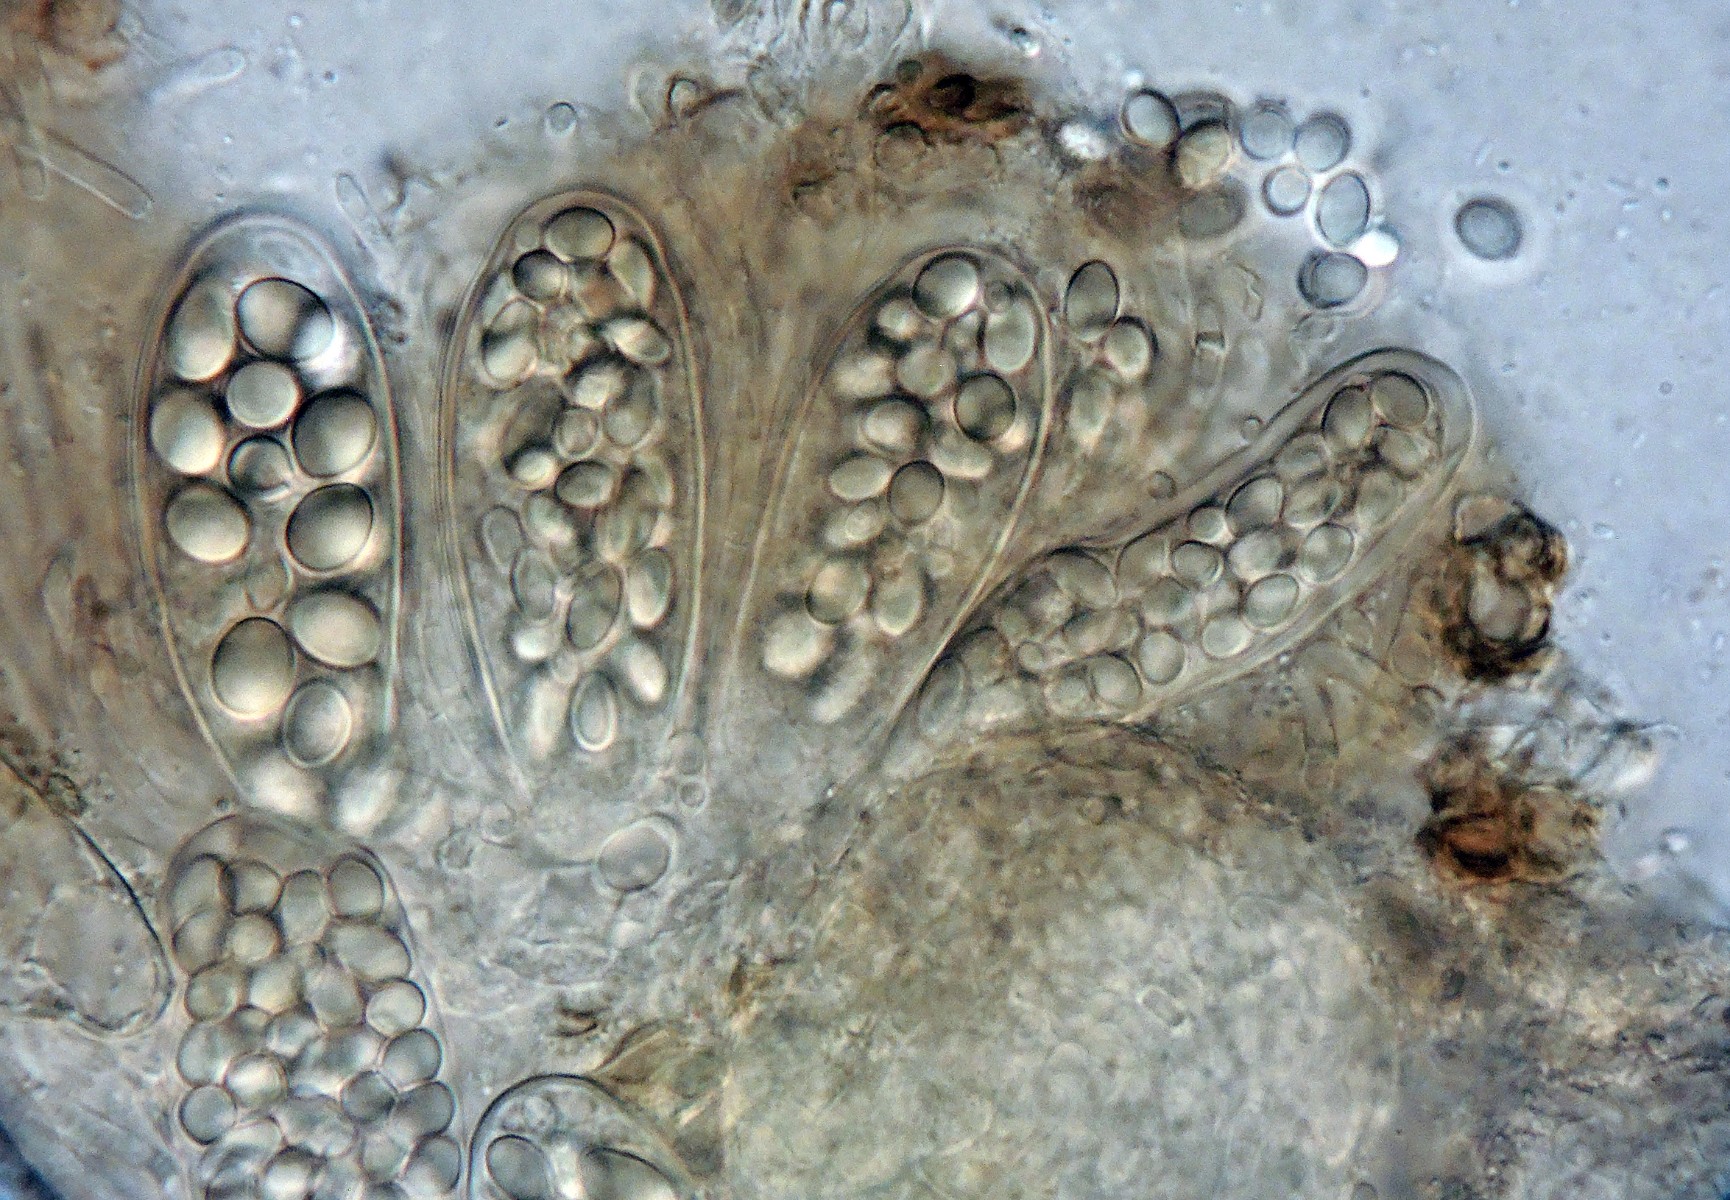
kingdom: Fungi
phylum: Ascomycota
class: Leotiomycetes
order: Thelebolales
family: Thelebolaceae
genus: Thelebolus
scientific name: Thelebolus stercoreus
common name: mangesporet småbæger
